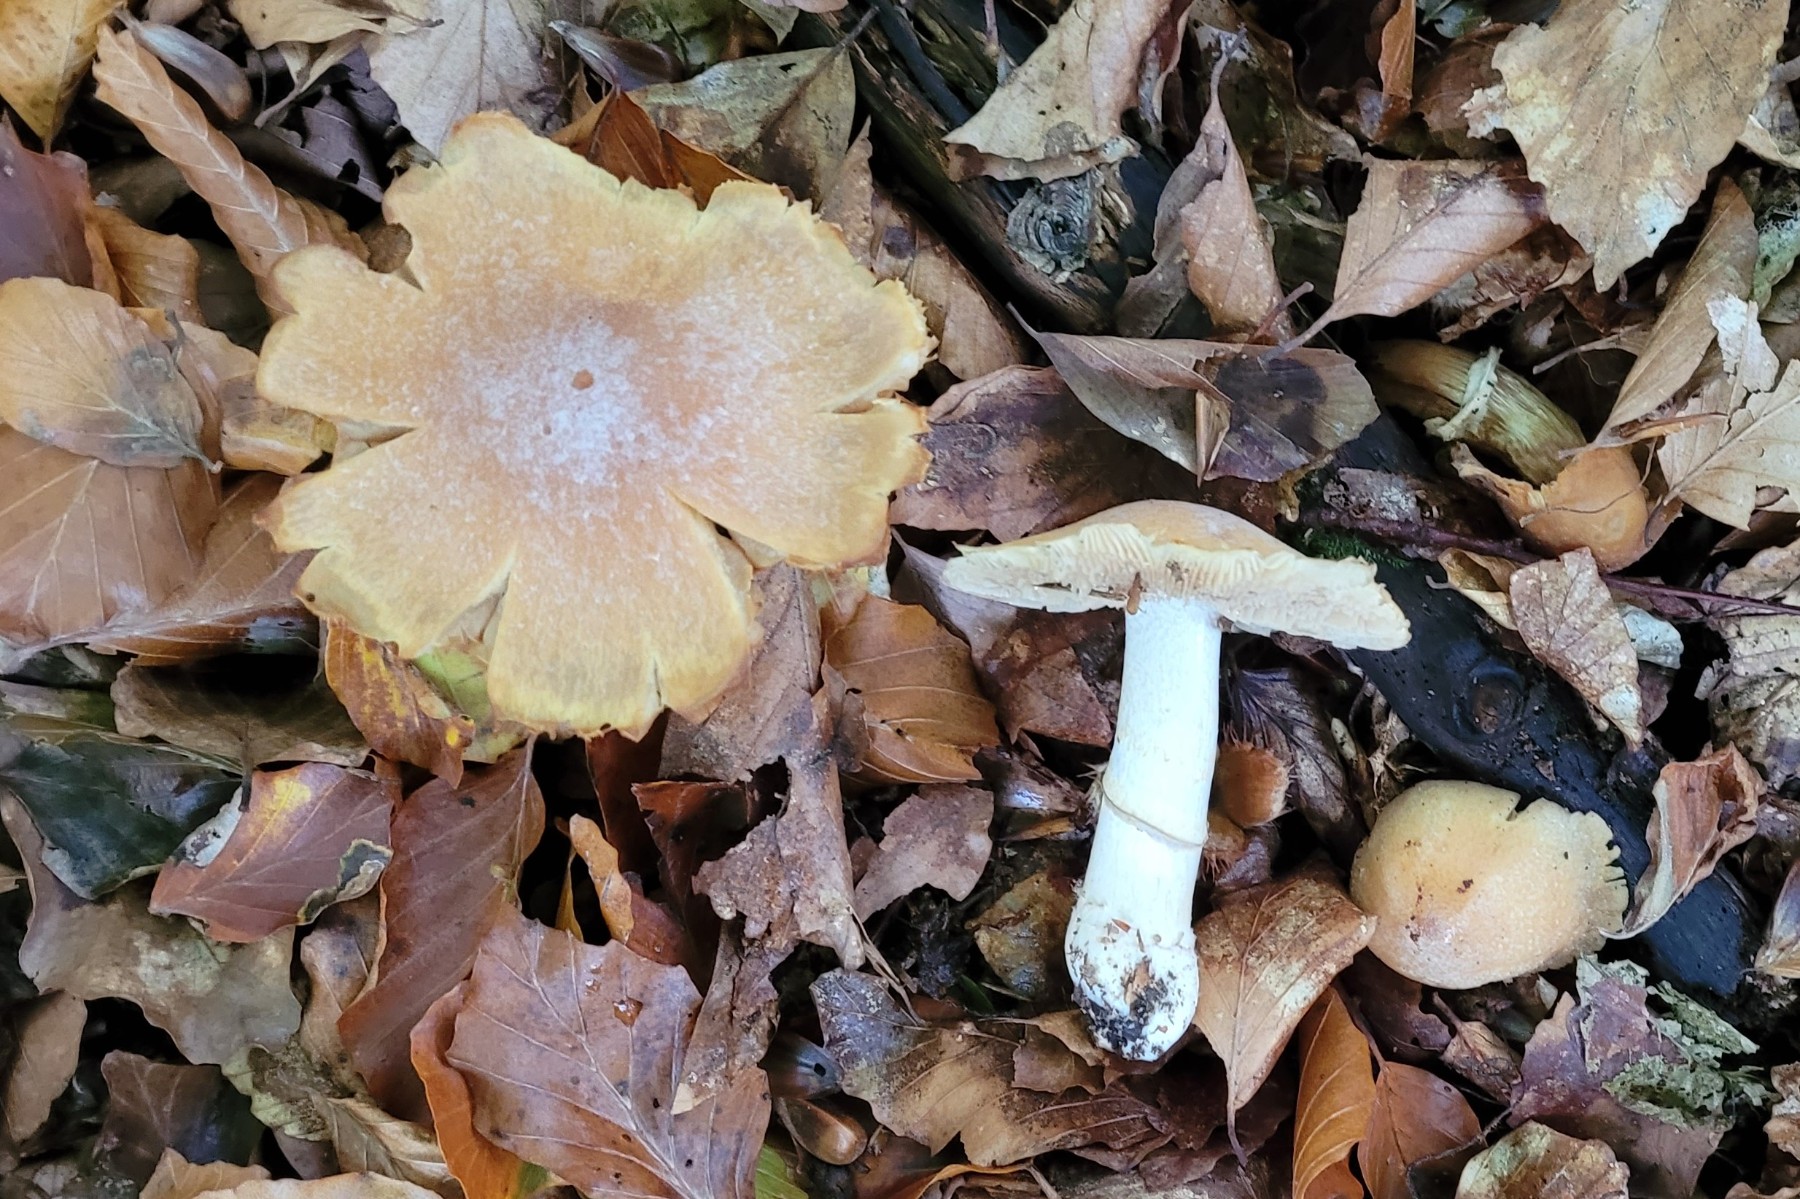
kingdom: Fungi
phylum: Basidiomycota
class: Agaricomycetes
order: Agaricales
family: Cortinariaceae
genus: Cortinarius
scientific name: Cortinarius caperatus
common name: klidhat
